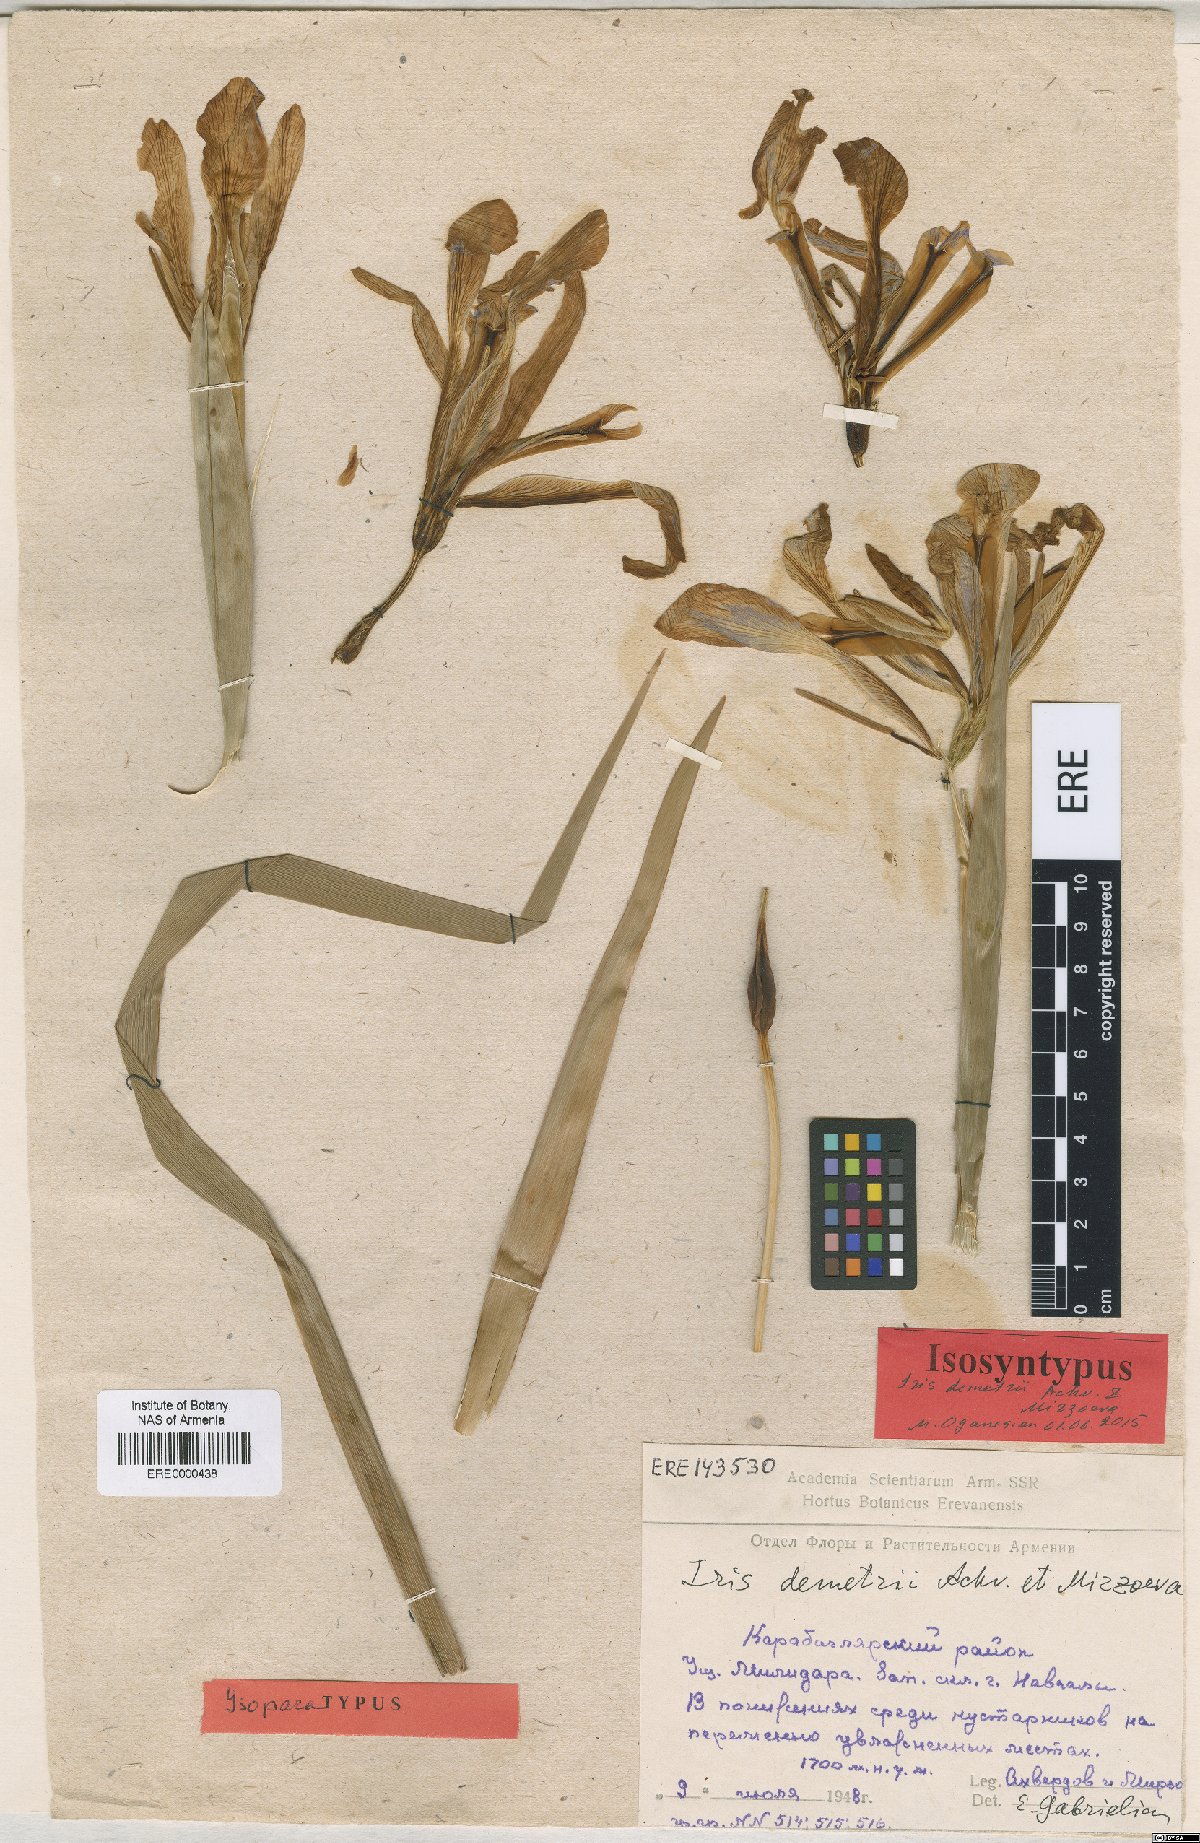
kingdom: Plantae
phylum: Tracheophyta
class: Liliopsida
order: Asparagales
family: Iridaceae
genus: Iris
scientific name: Iris spuria
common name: Blue iris
